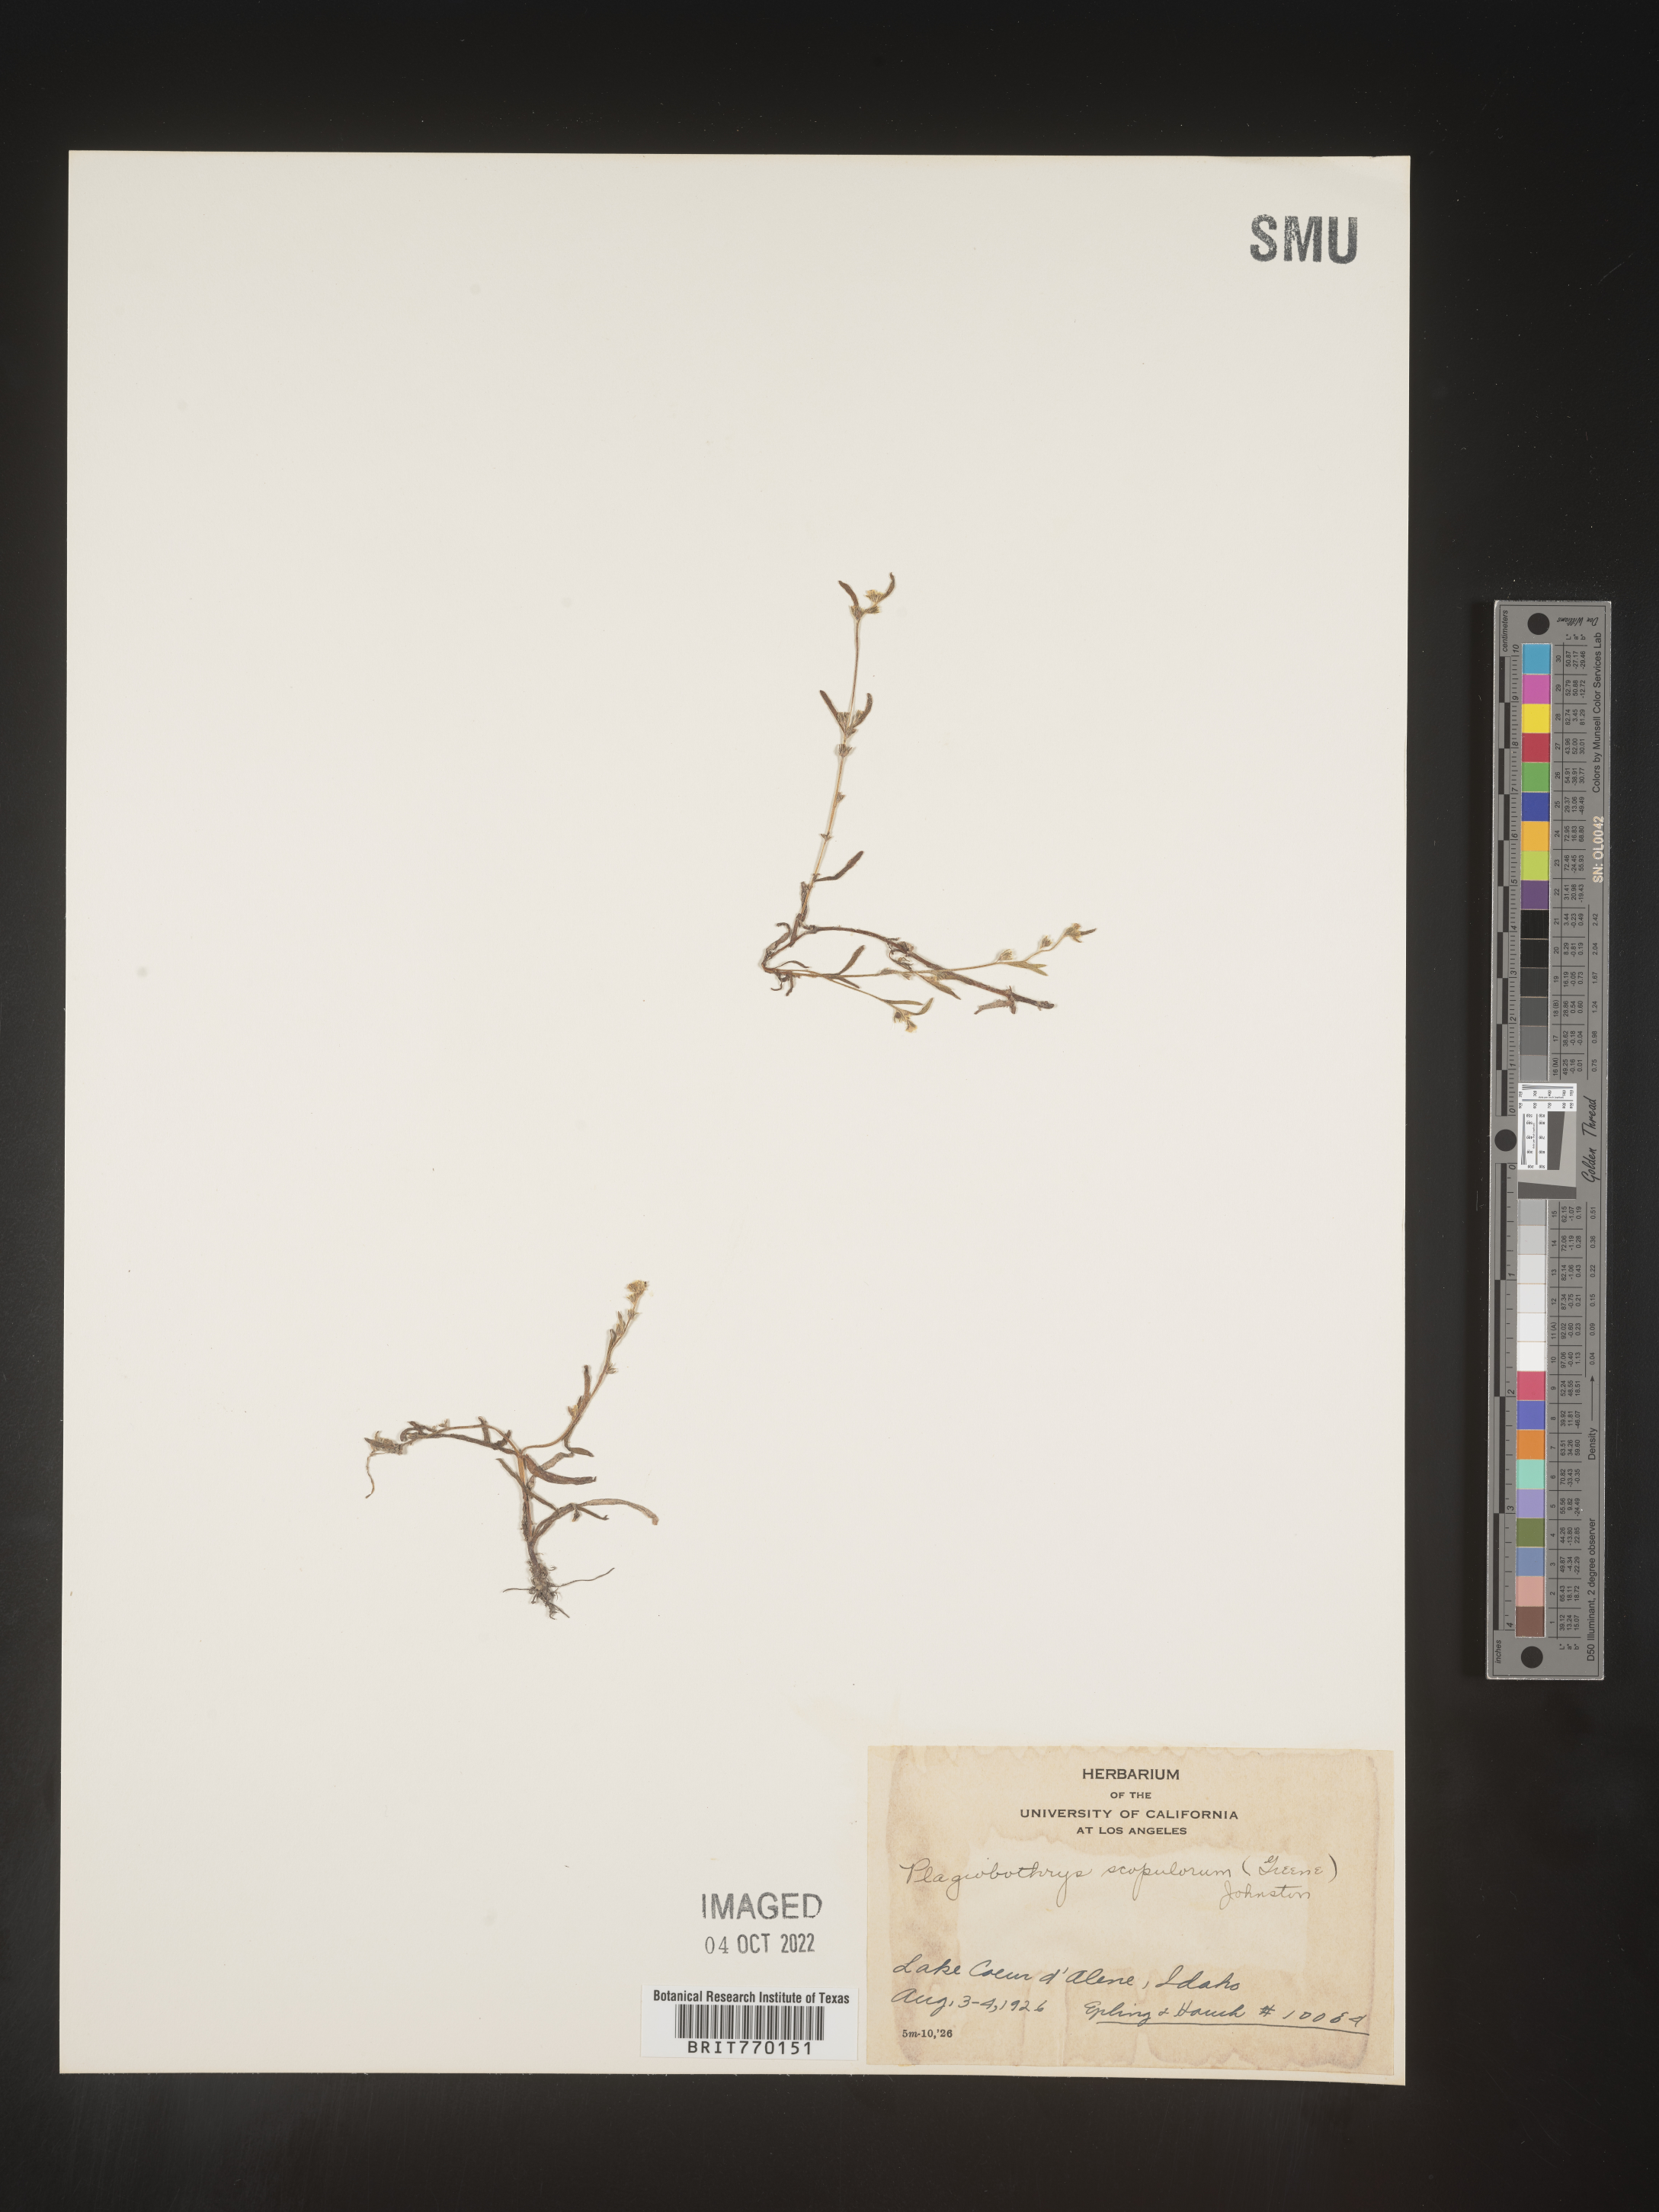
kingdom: Plantae
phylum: Tracheophyta
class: Magnoliopsida
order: Boraginales
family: Boraginaceae
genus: Plagiobothrys
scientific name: Plagiobothrys
